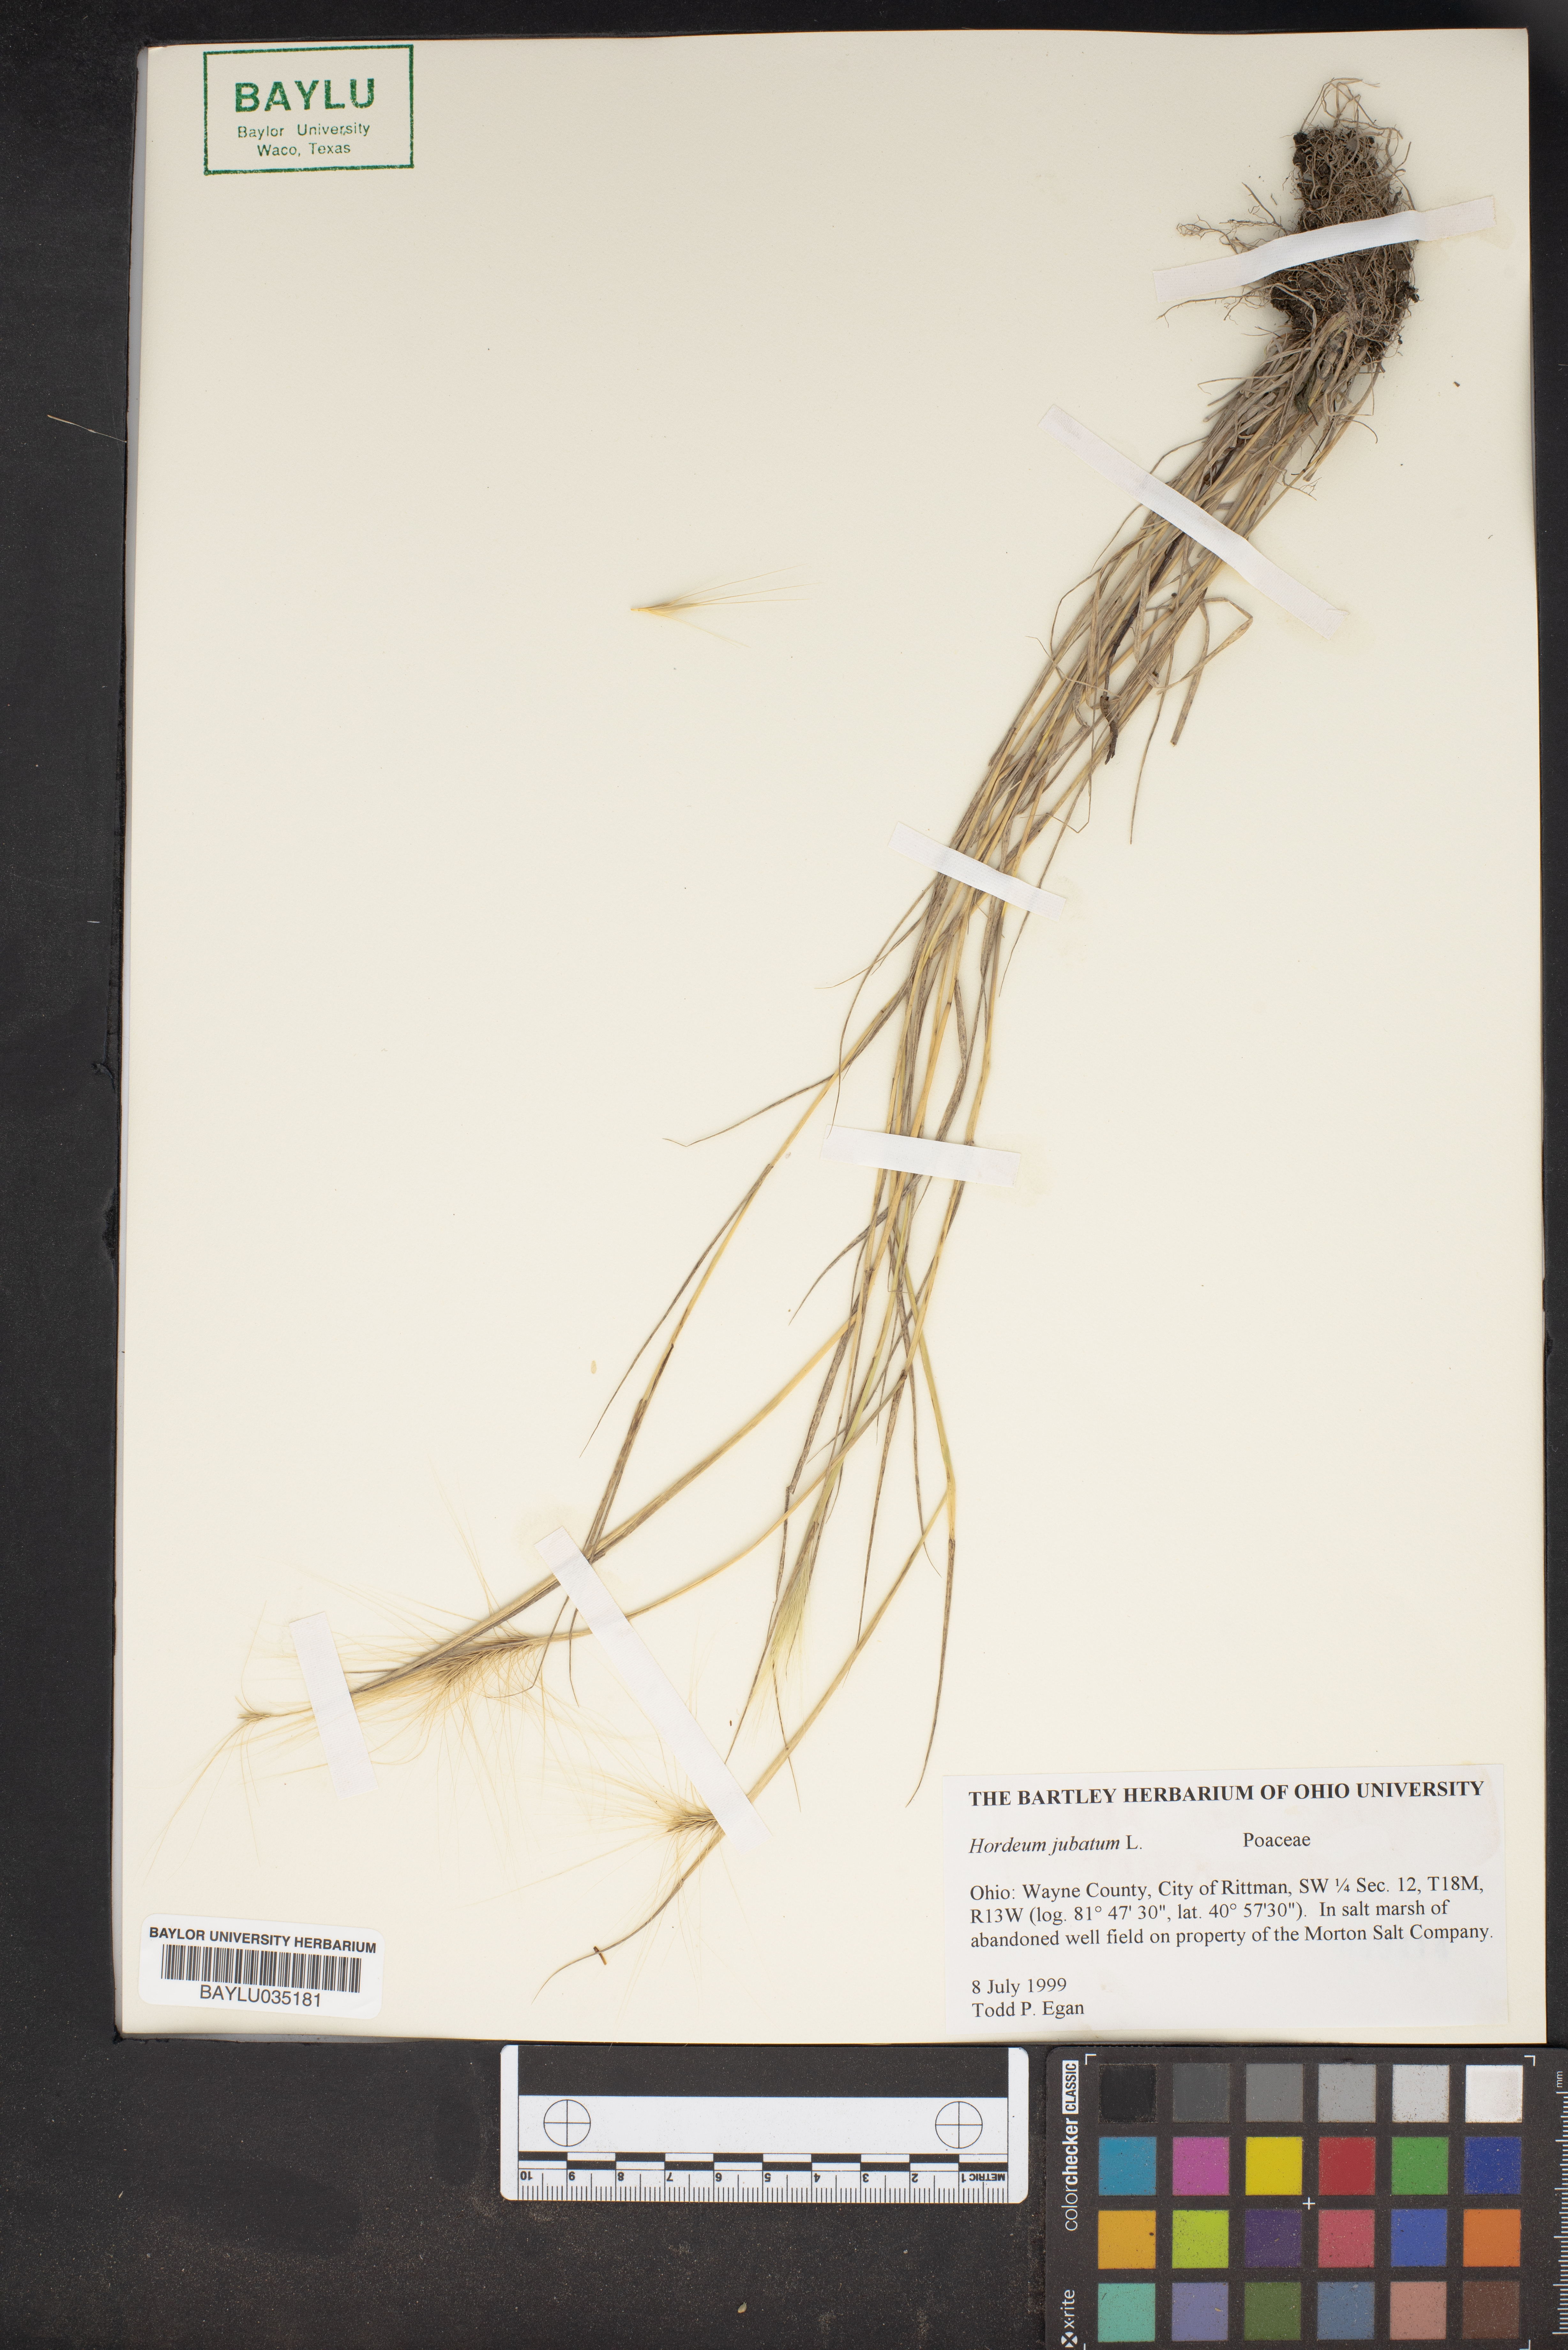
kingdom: Plantae
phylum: Tracheophyta
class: Liliopsida
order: Poales
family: Poaceae
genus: Hordeum
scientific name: Hordeum jubatum
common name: Foxtail barley
